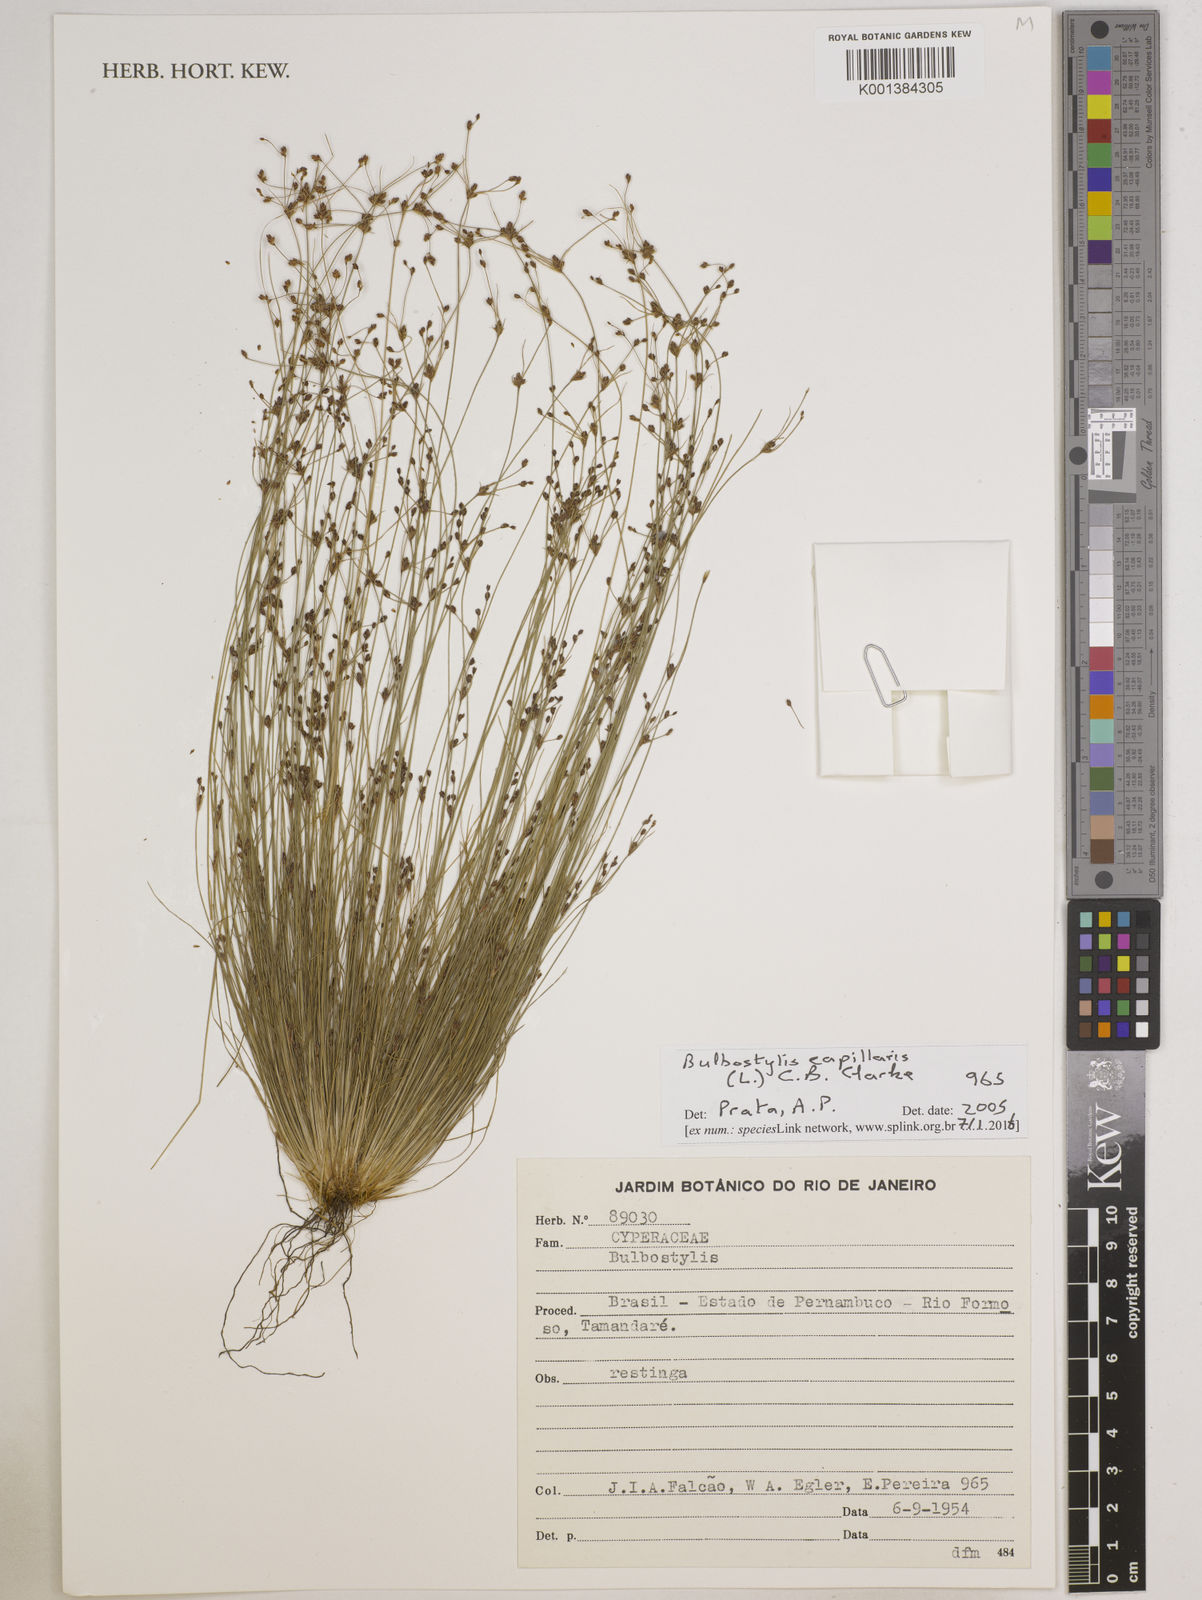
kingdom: Plantae
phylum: Tracheophyta
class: Liliopsida
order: Poales
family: Cyperaceae
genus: Bulbostylis
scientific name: Bulbostylis capillaris
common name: Densetuft hairsedge
